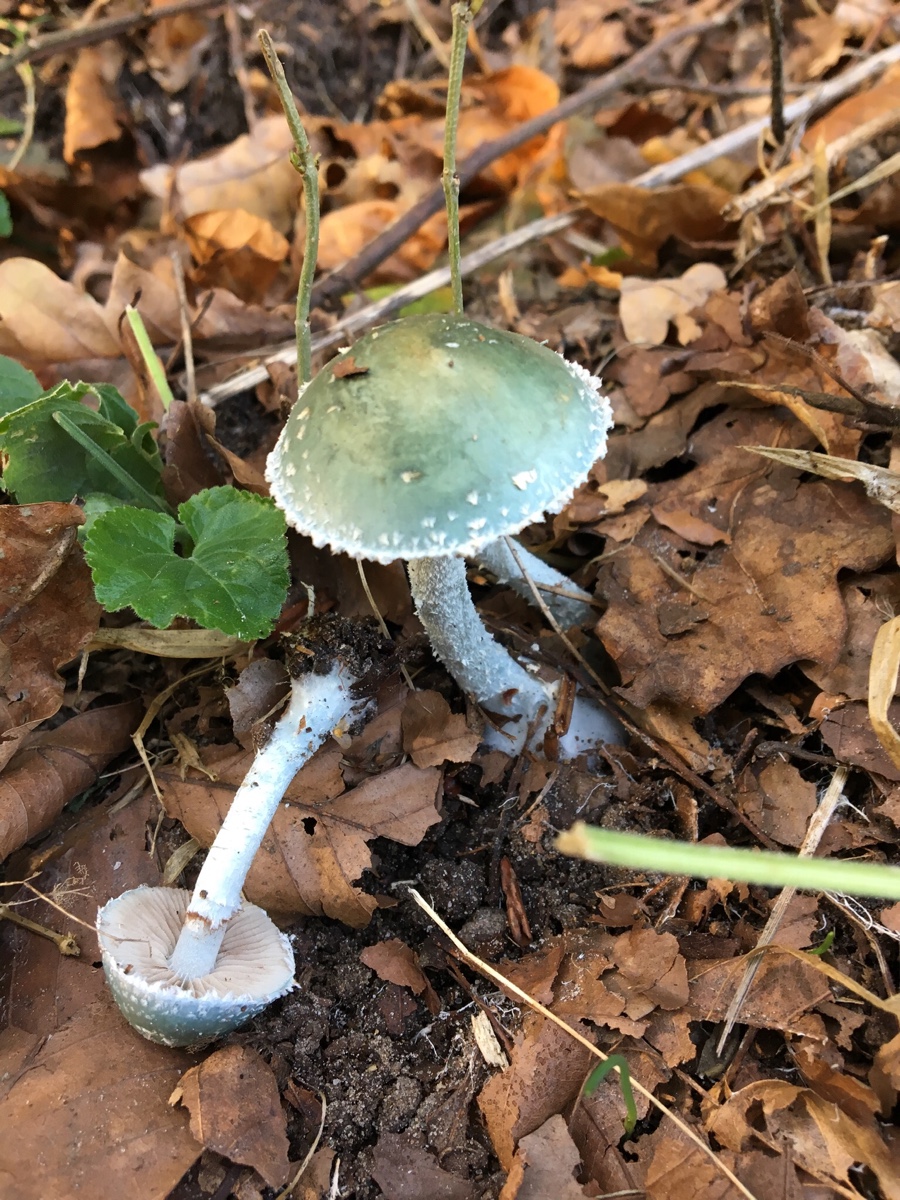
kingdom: Fungi
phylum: Basidiomycota
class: Agaricomycetes
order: Agaricales
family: Strophariaceae
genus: Stropharia
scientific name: Stropharia cyanea
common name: blågrøn bredblad
